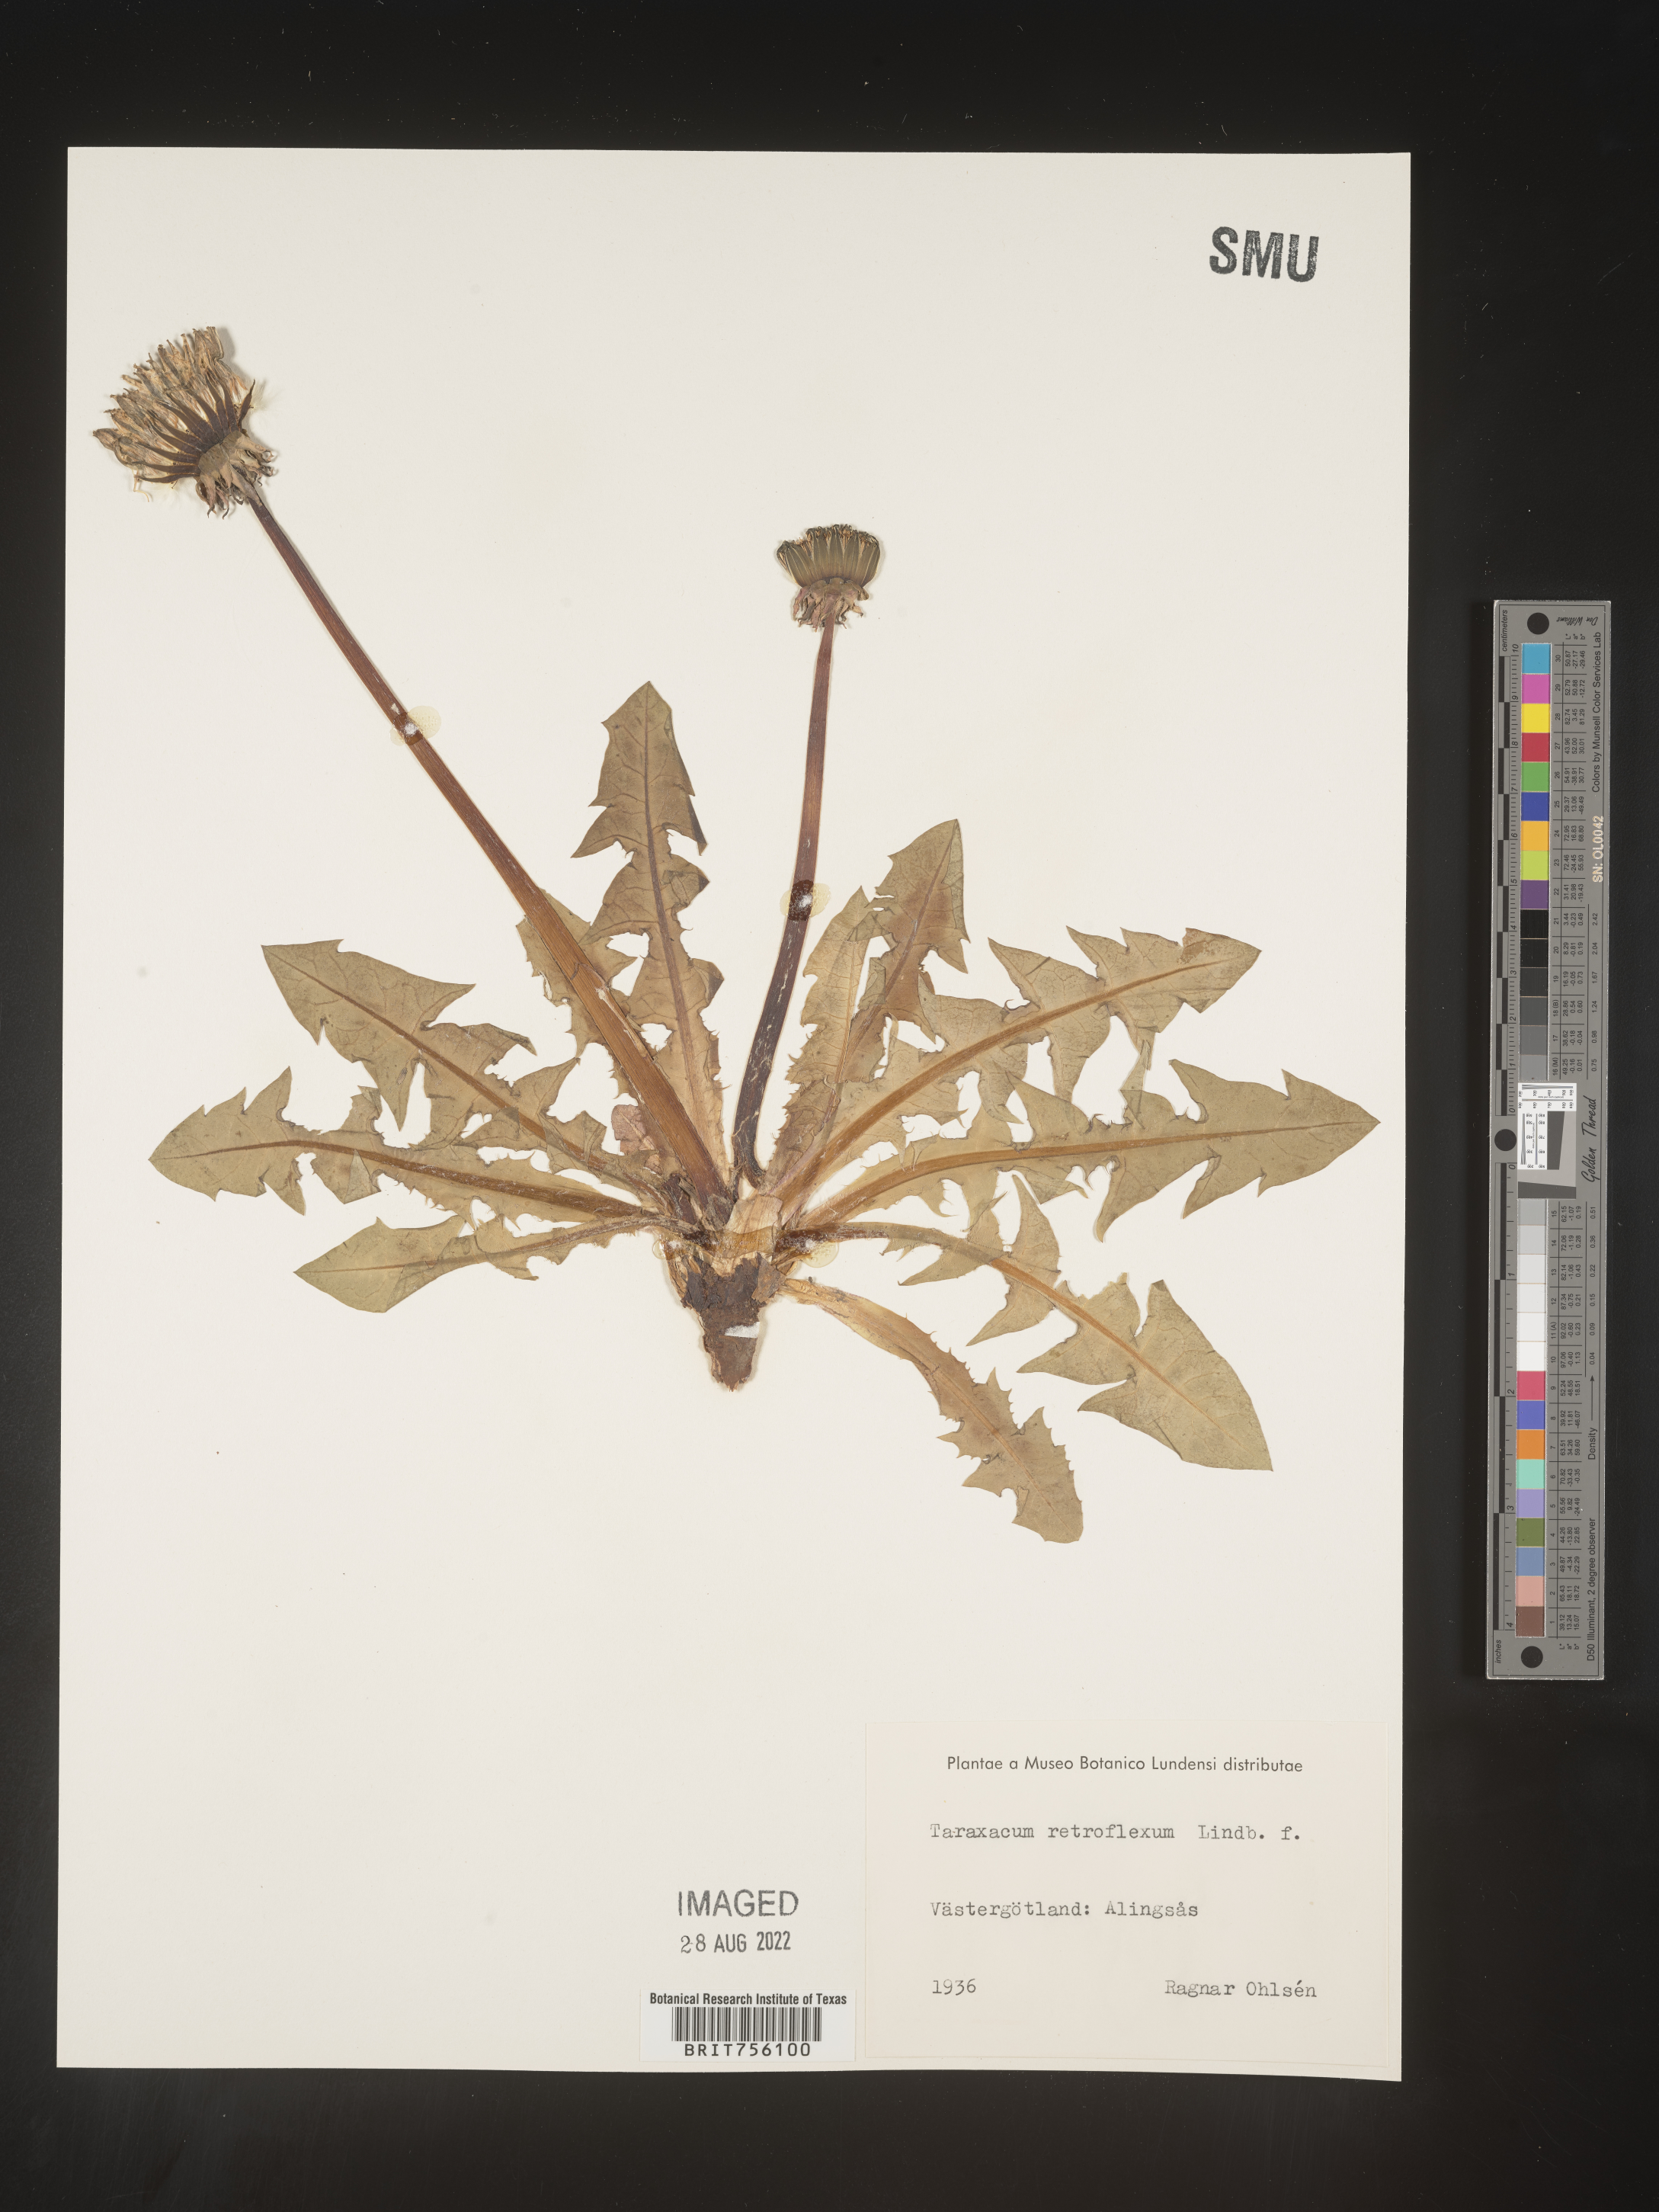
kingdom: Plantae
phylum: Tracheophyta
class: Magnoliopsida
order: Asterales
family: Asteraceae
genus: Taraxacum
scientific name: Taraxacum
